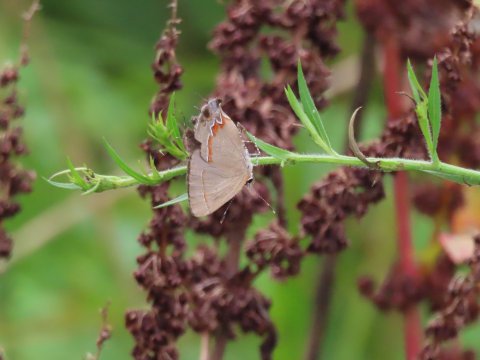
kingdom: Animalia
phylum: Arthropoda
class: Insecta
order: Lepidoptera
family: Lycaenidae
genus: Calycopis
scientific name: Calycopis cecrops
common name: Red-banded Hairstreak
